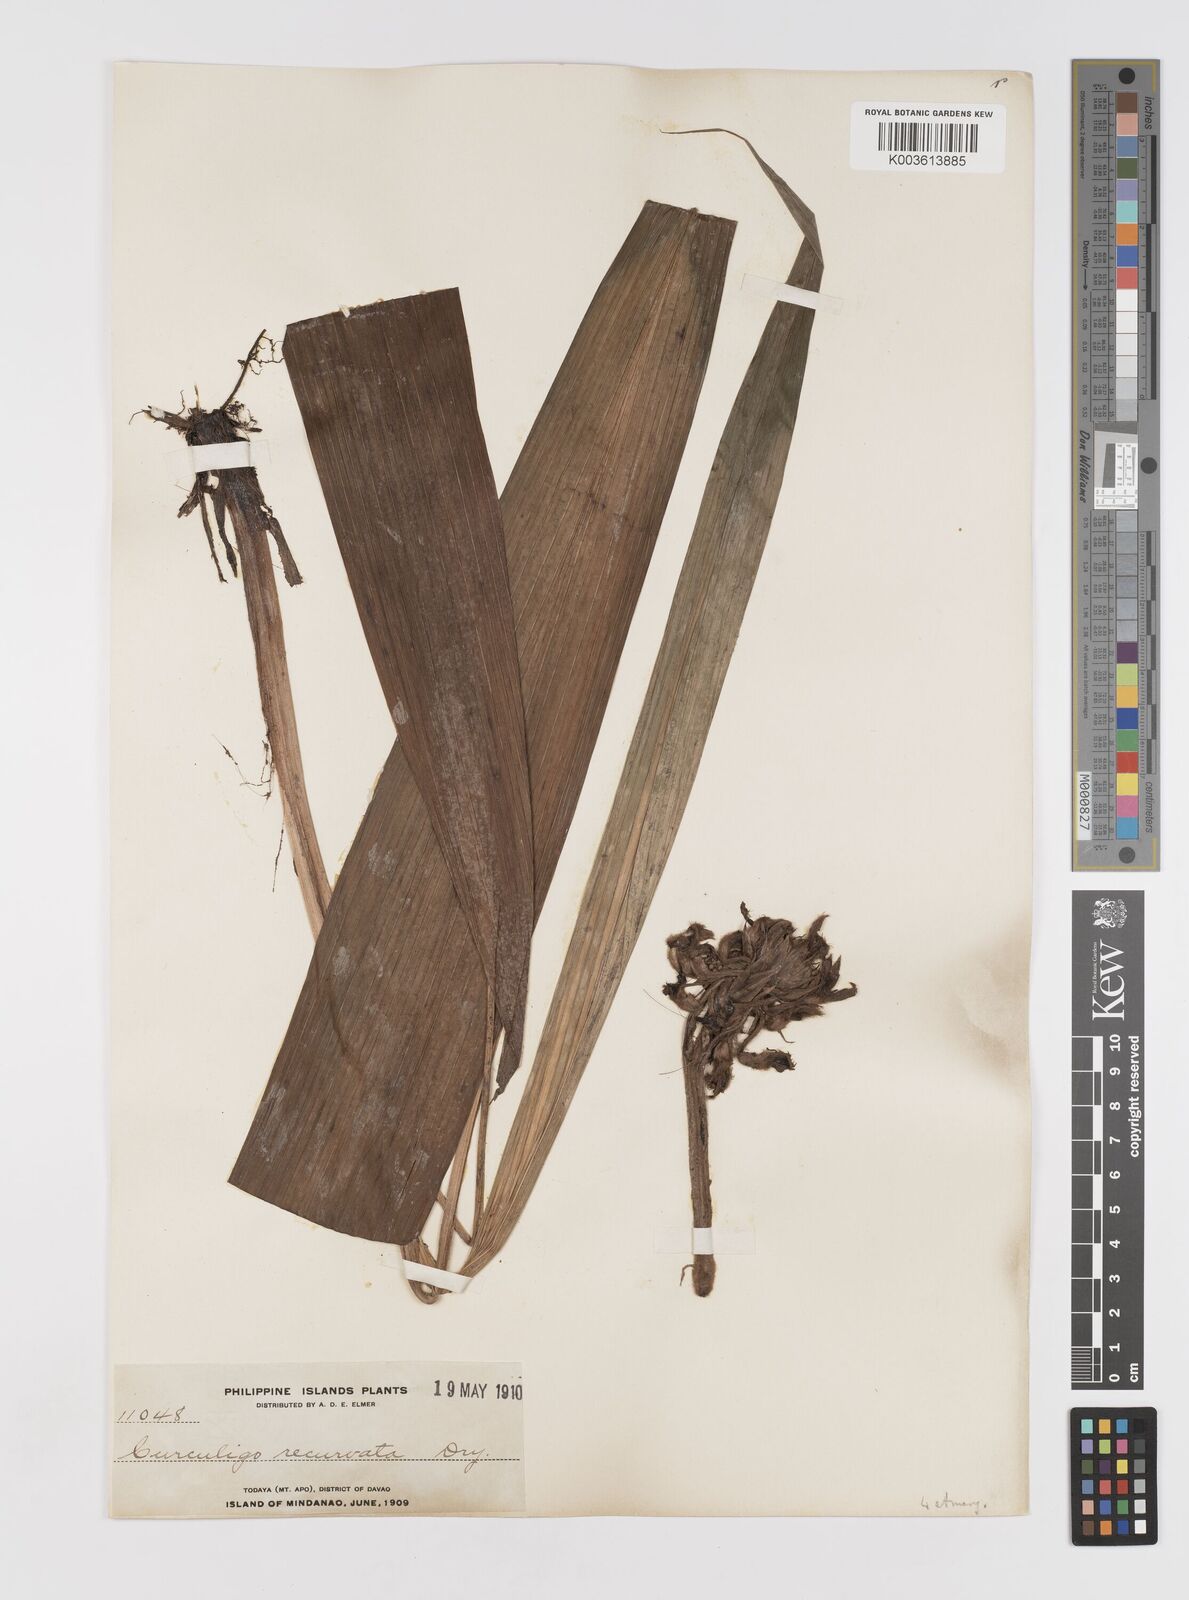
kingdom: Plantae
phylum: Tracheophyta
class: Liliopsida
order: Asparagales
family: Hypoxidaceae
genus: Curculigo
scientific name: Curculigo capitulata
